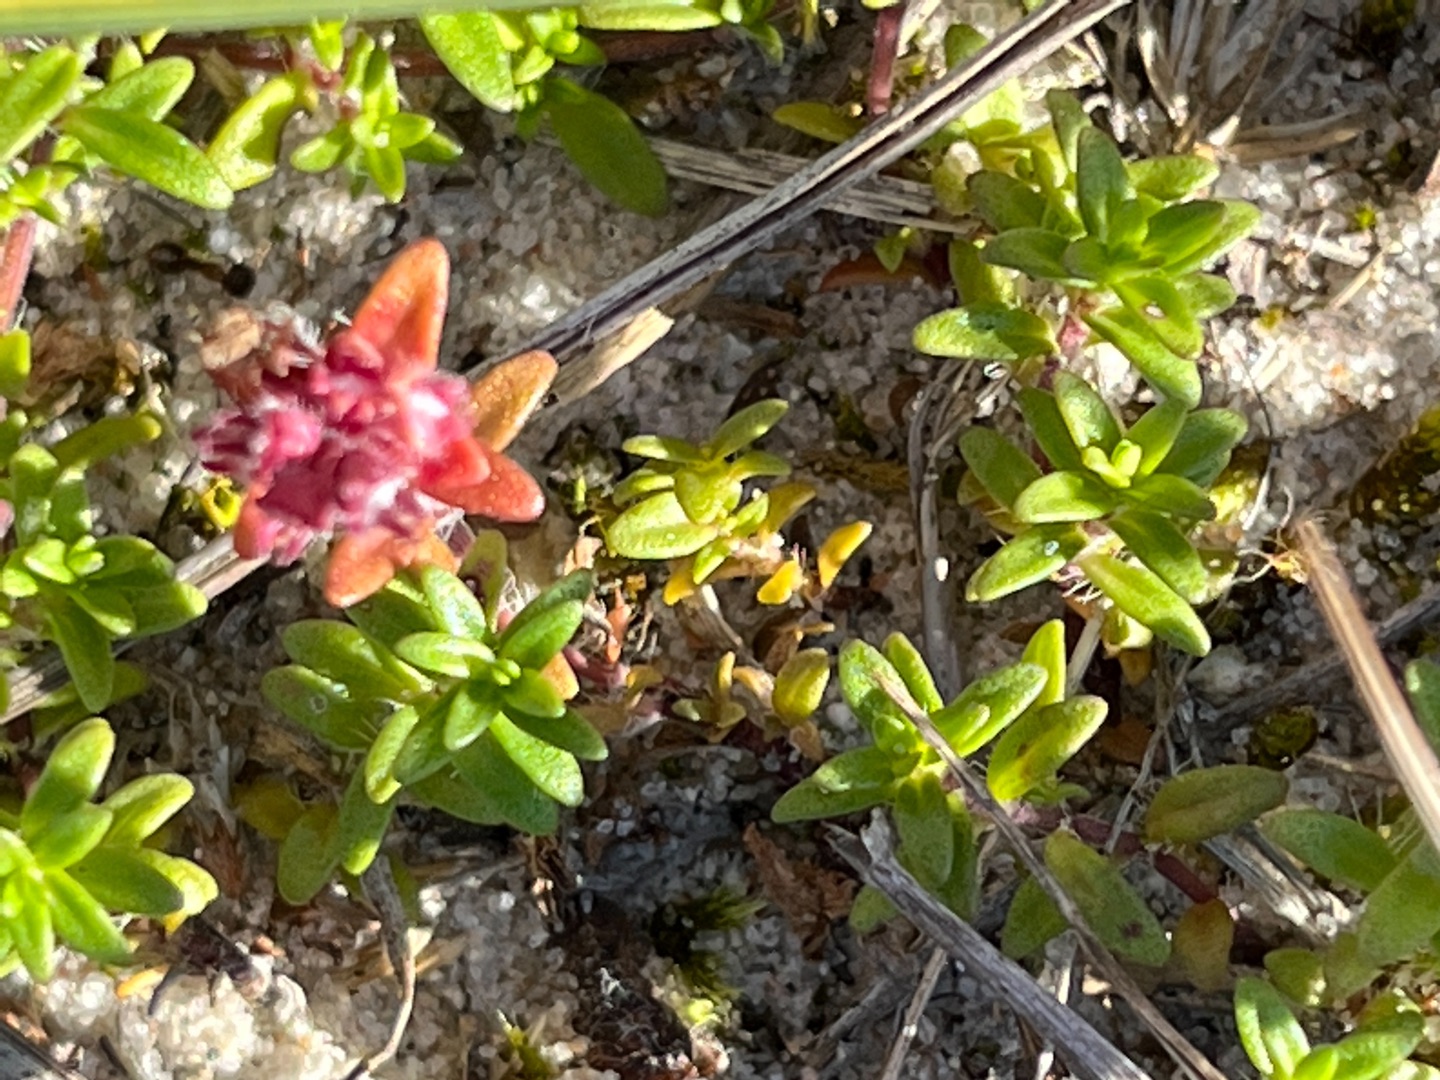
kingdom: Plantae
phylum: Tracheophyta
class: Magnoliopsida
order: Lamiales
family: Lamiaceae
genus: Thymus
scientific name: Thymus serpyllum
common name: Smalbladet timian
